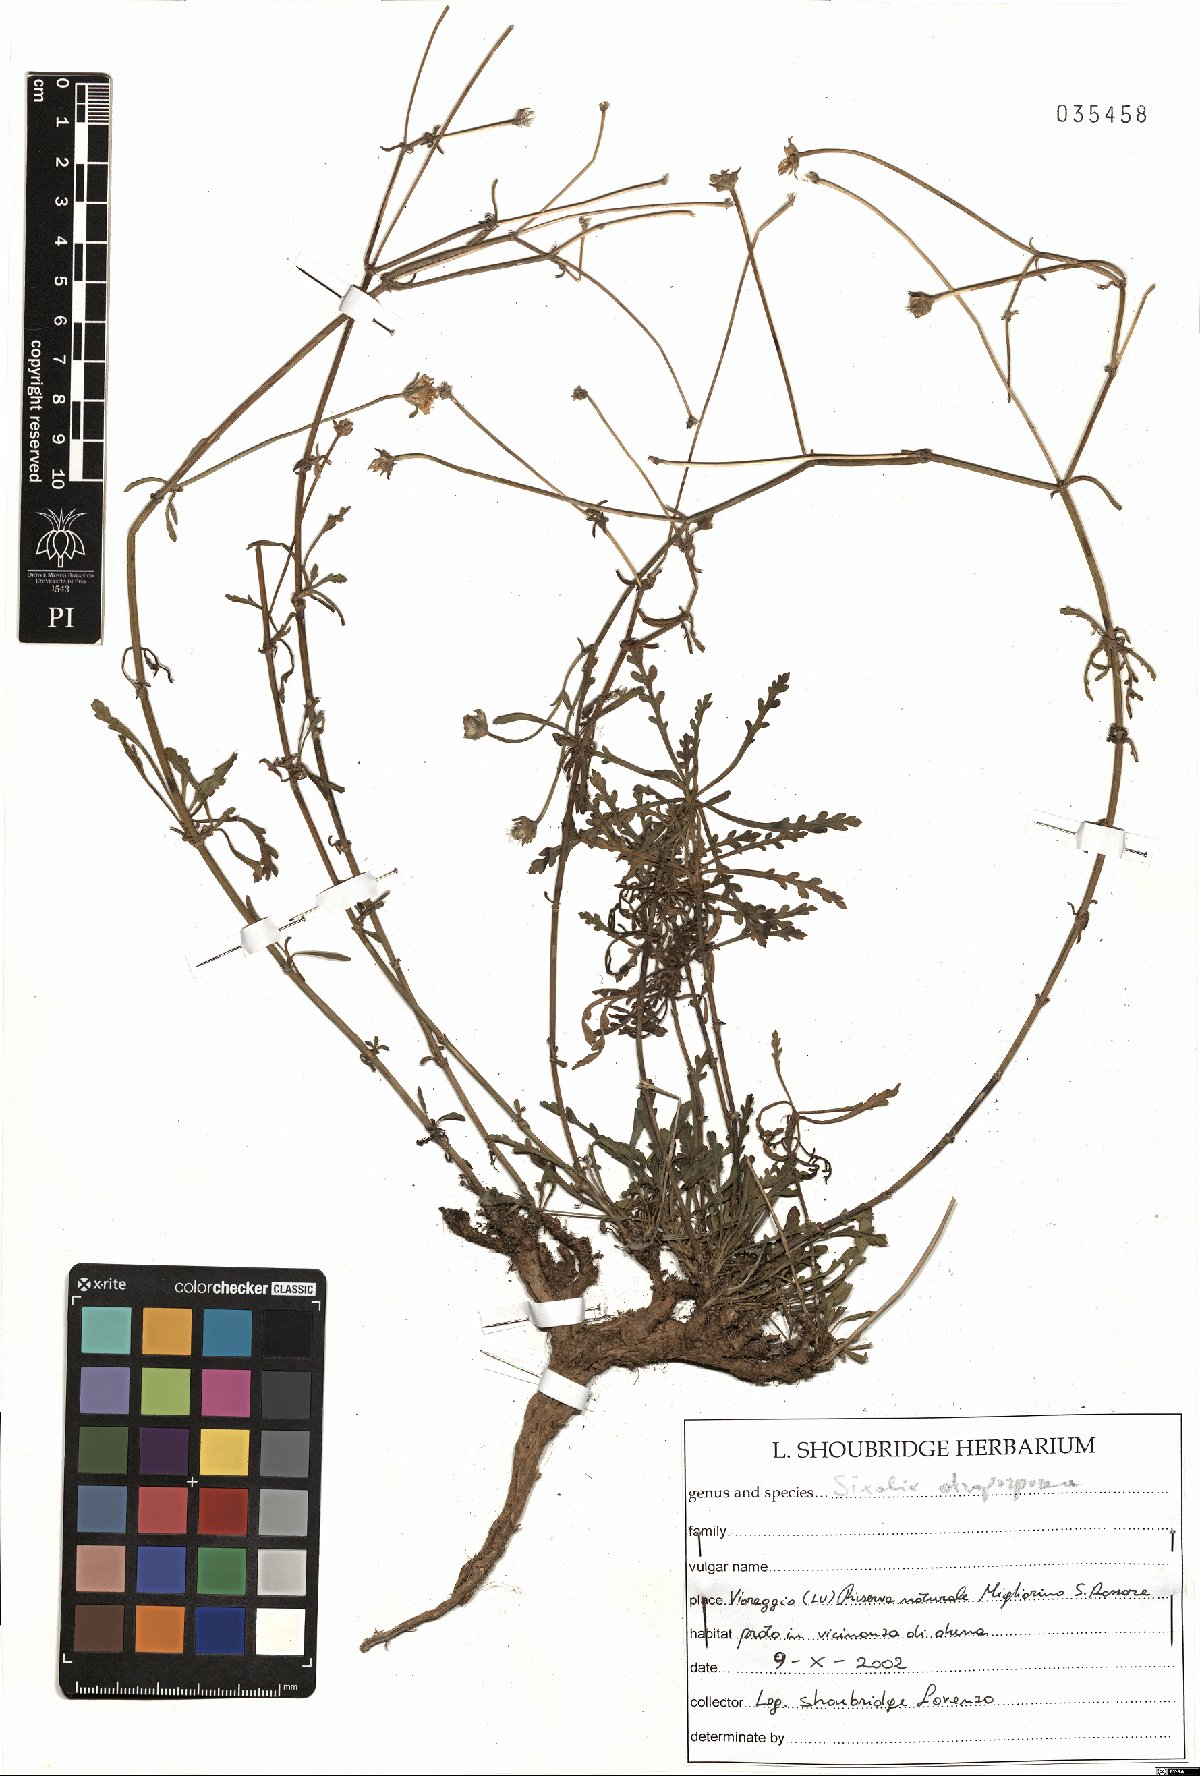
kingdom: Plantae
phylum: Tracheophyta
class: Magnoliopsida
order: Dipsacales
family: Caprifoliaceae
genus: Sixalix
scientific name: Sixalix atropurpurea
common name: Sweet scabious
